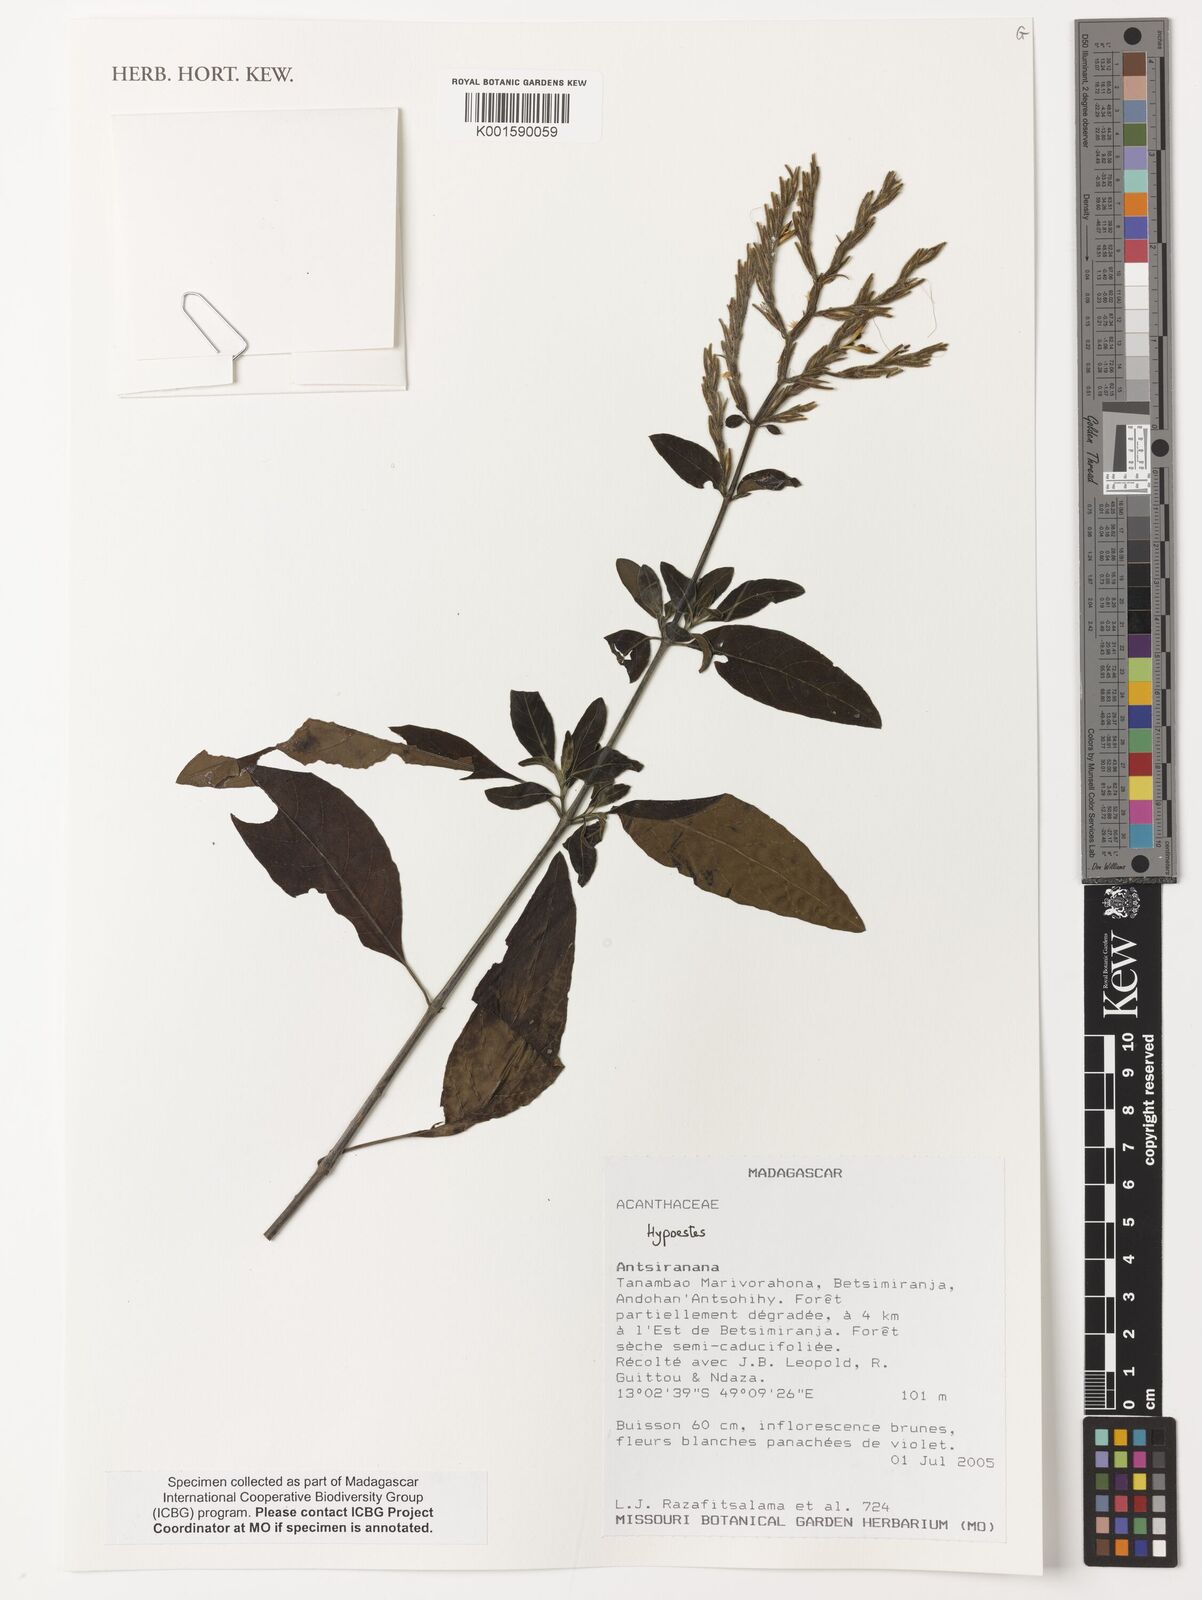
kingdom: Plantae
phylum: Tracheophyta
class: Magnoliopsida
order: Lamiales
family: Acanthaceae
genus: Hypoestes
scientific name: Hypoestes
